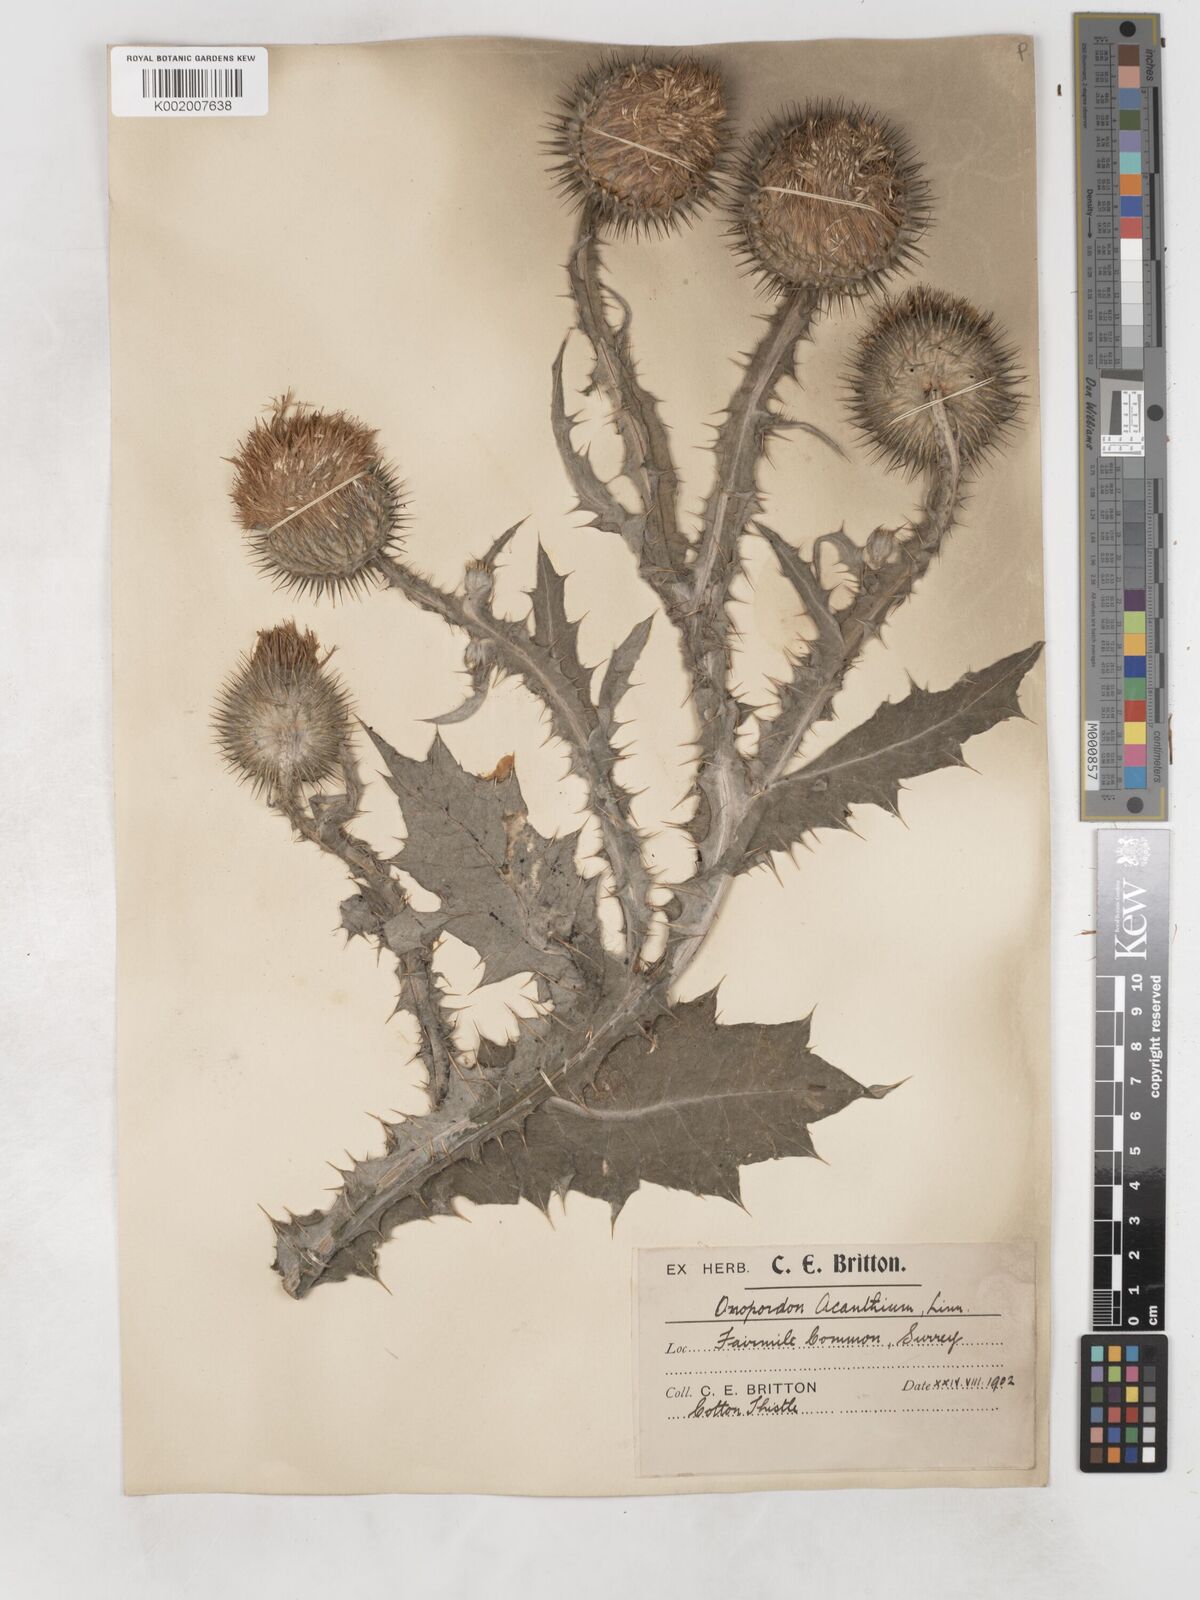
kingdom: Plantae
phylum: Tracheophyta
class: Magnoliopsida
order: Asterales
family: Asteraceae
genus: Onopordum
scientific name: Onopordum acanthium
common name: Scotch thistle
